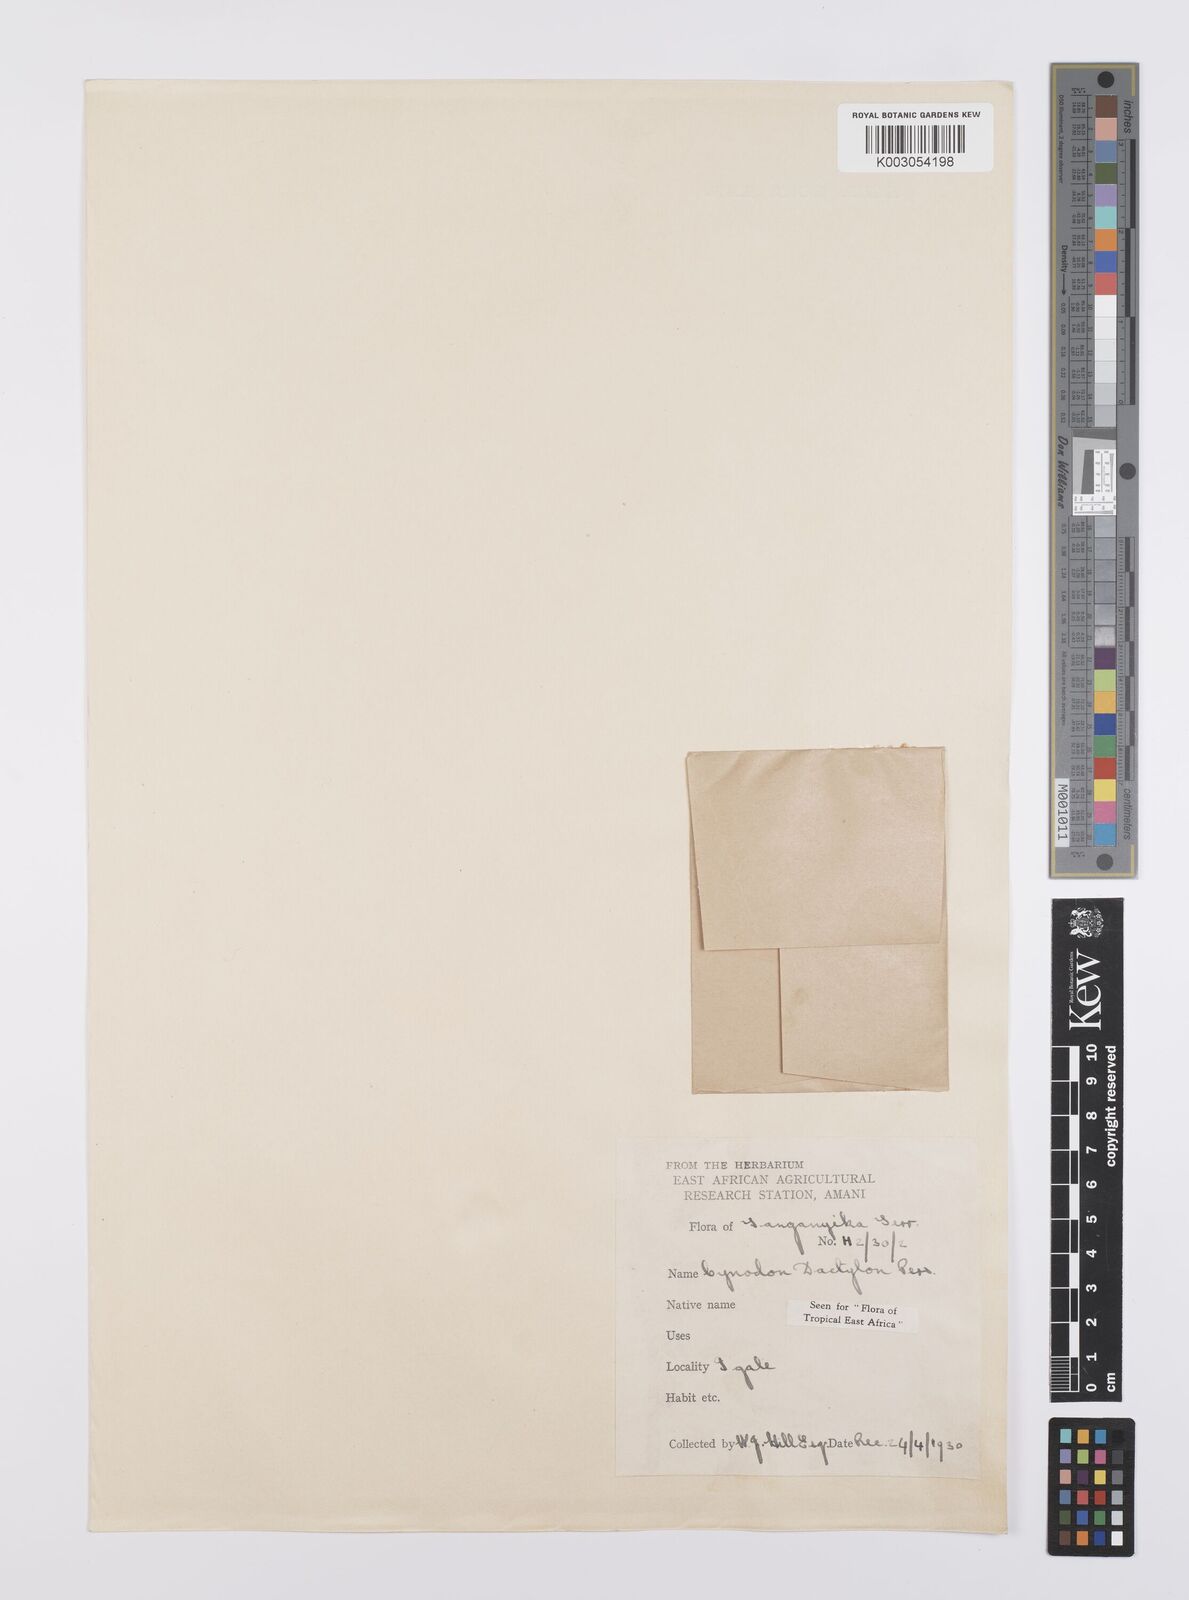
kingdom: Plantae
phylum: Tracheophyta
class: Liliopsida
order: Poales
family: Poaceae
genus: Cynodon
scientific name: Cynodon dactylon
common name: Bermuda grass
